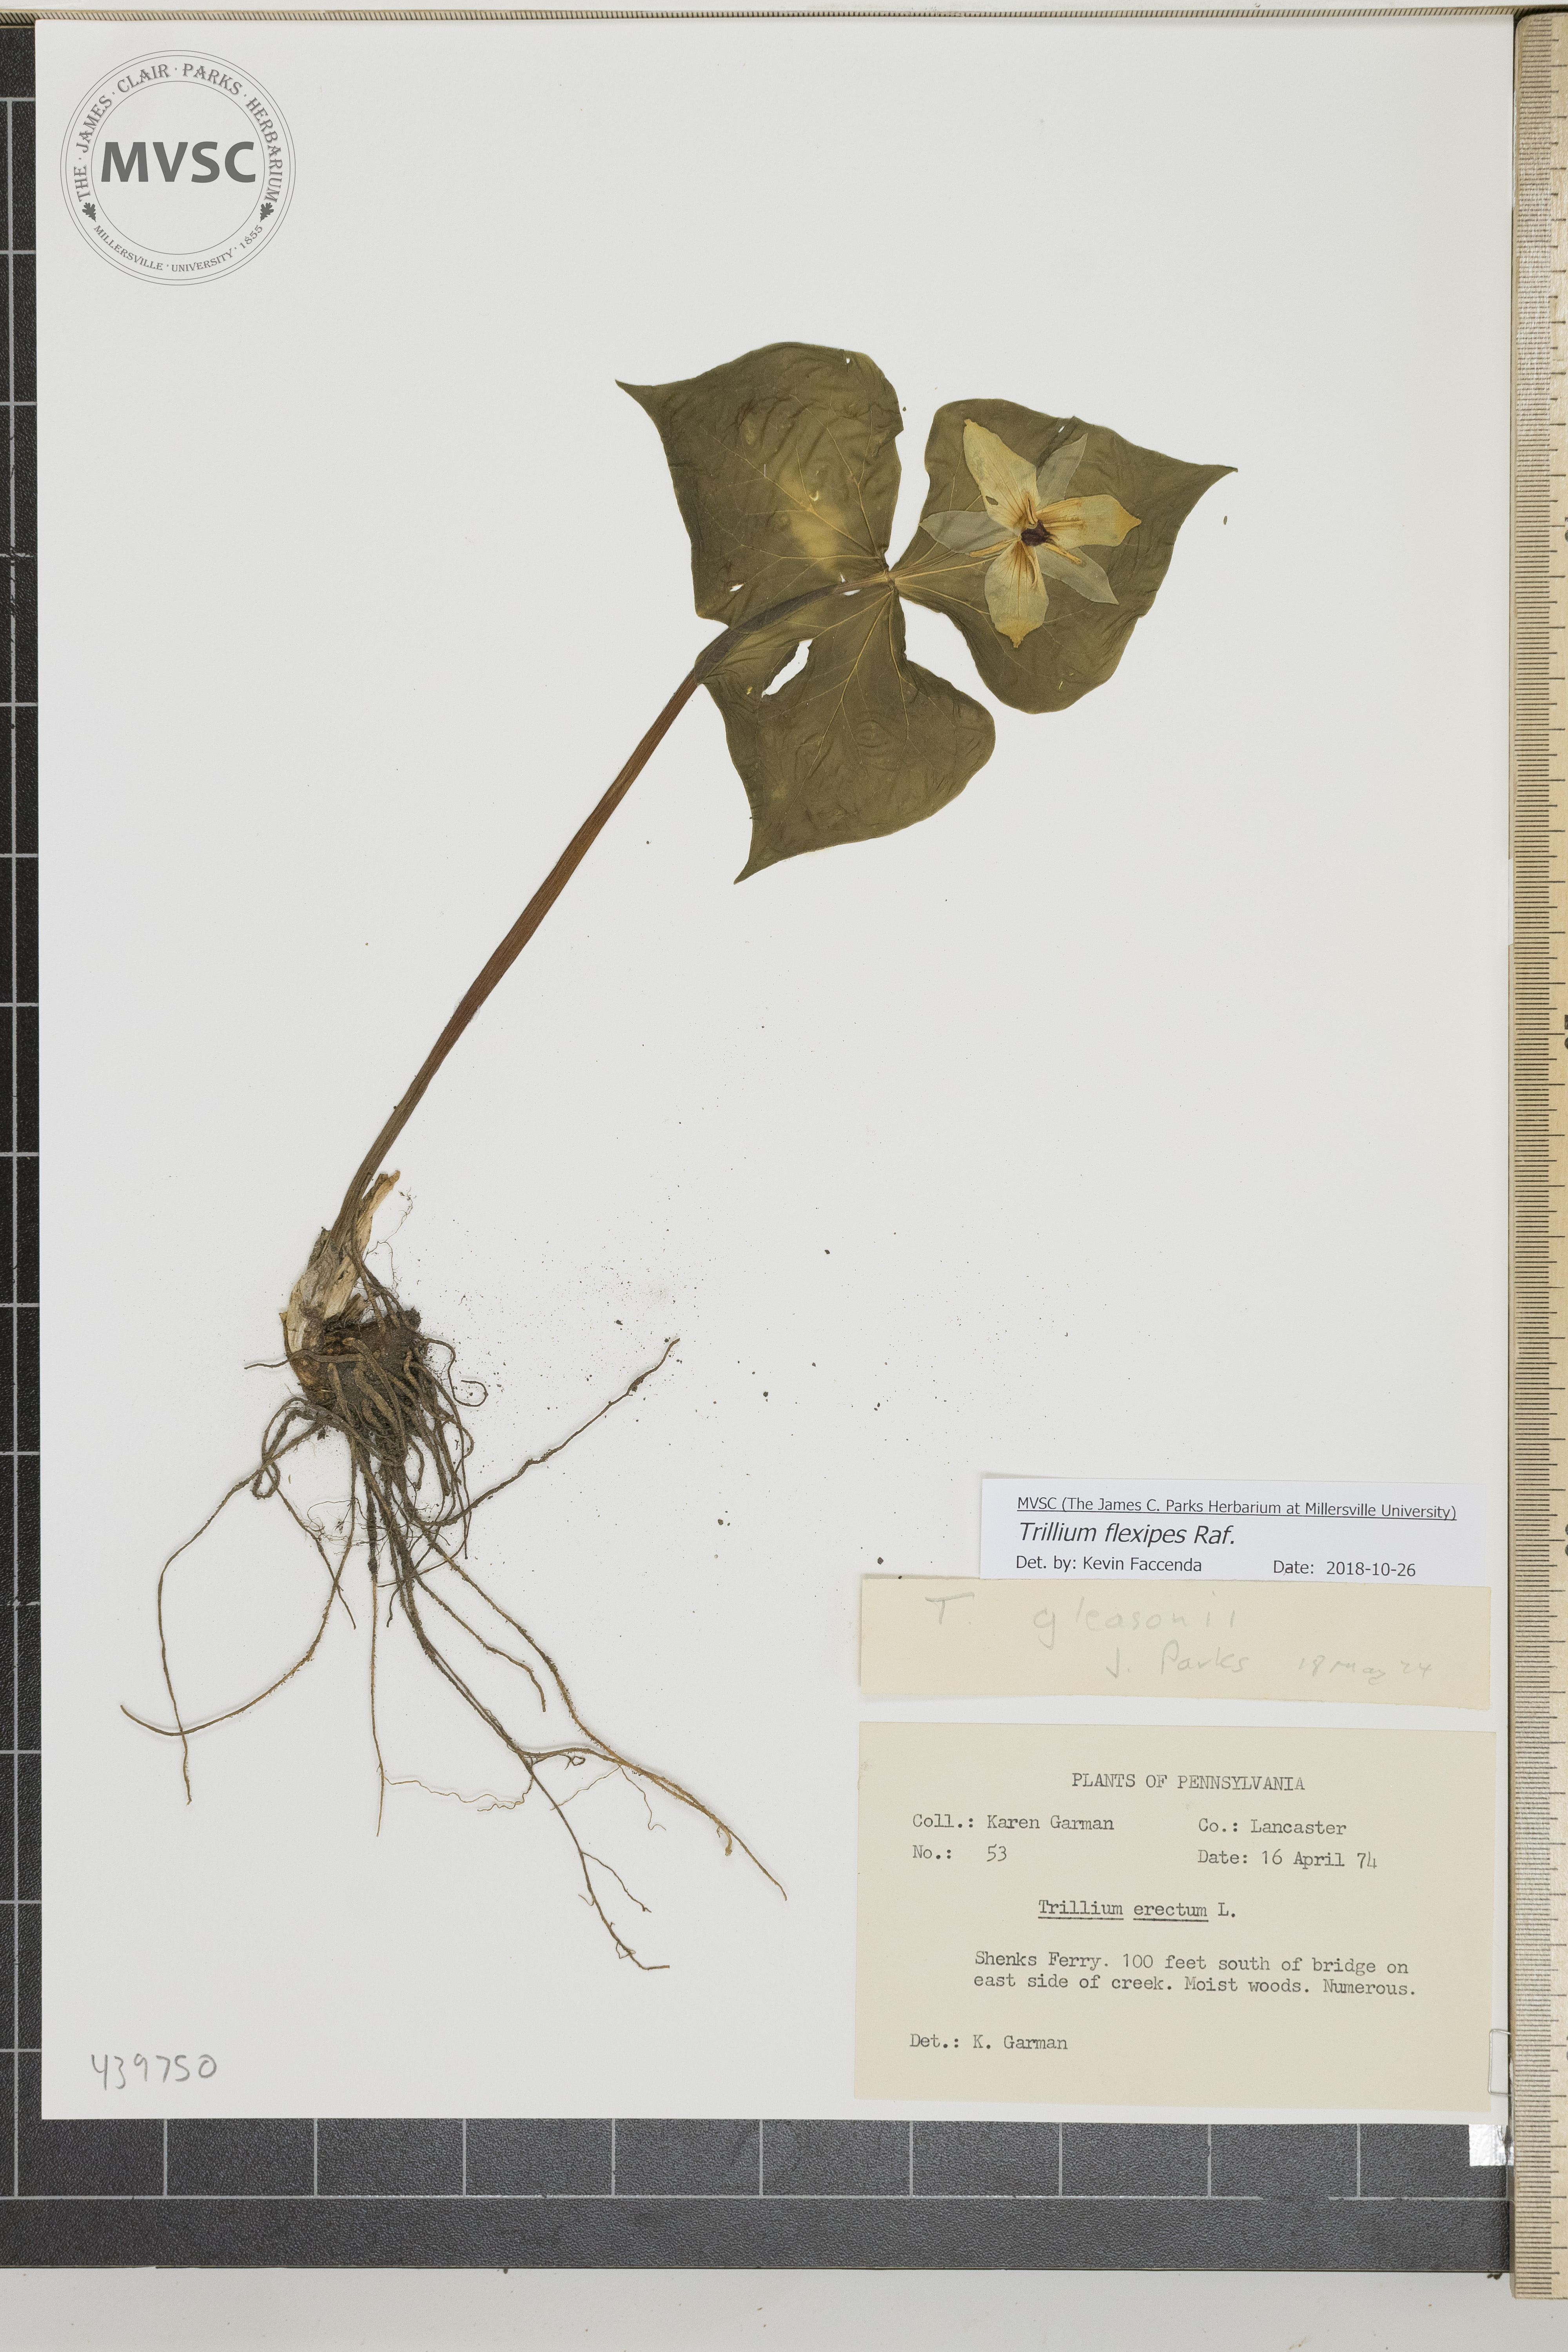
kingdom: Plantae
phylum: Tracheophyta
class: Liliopsida
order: Liliales
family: Melanthiaceae
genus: Trillium
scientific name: Trillium flexipes
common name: Drooping trillium
